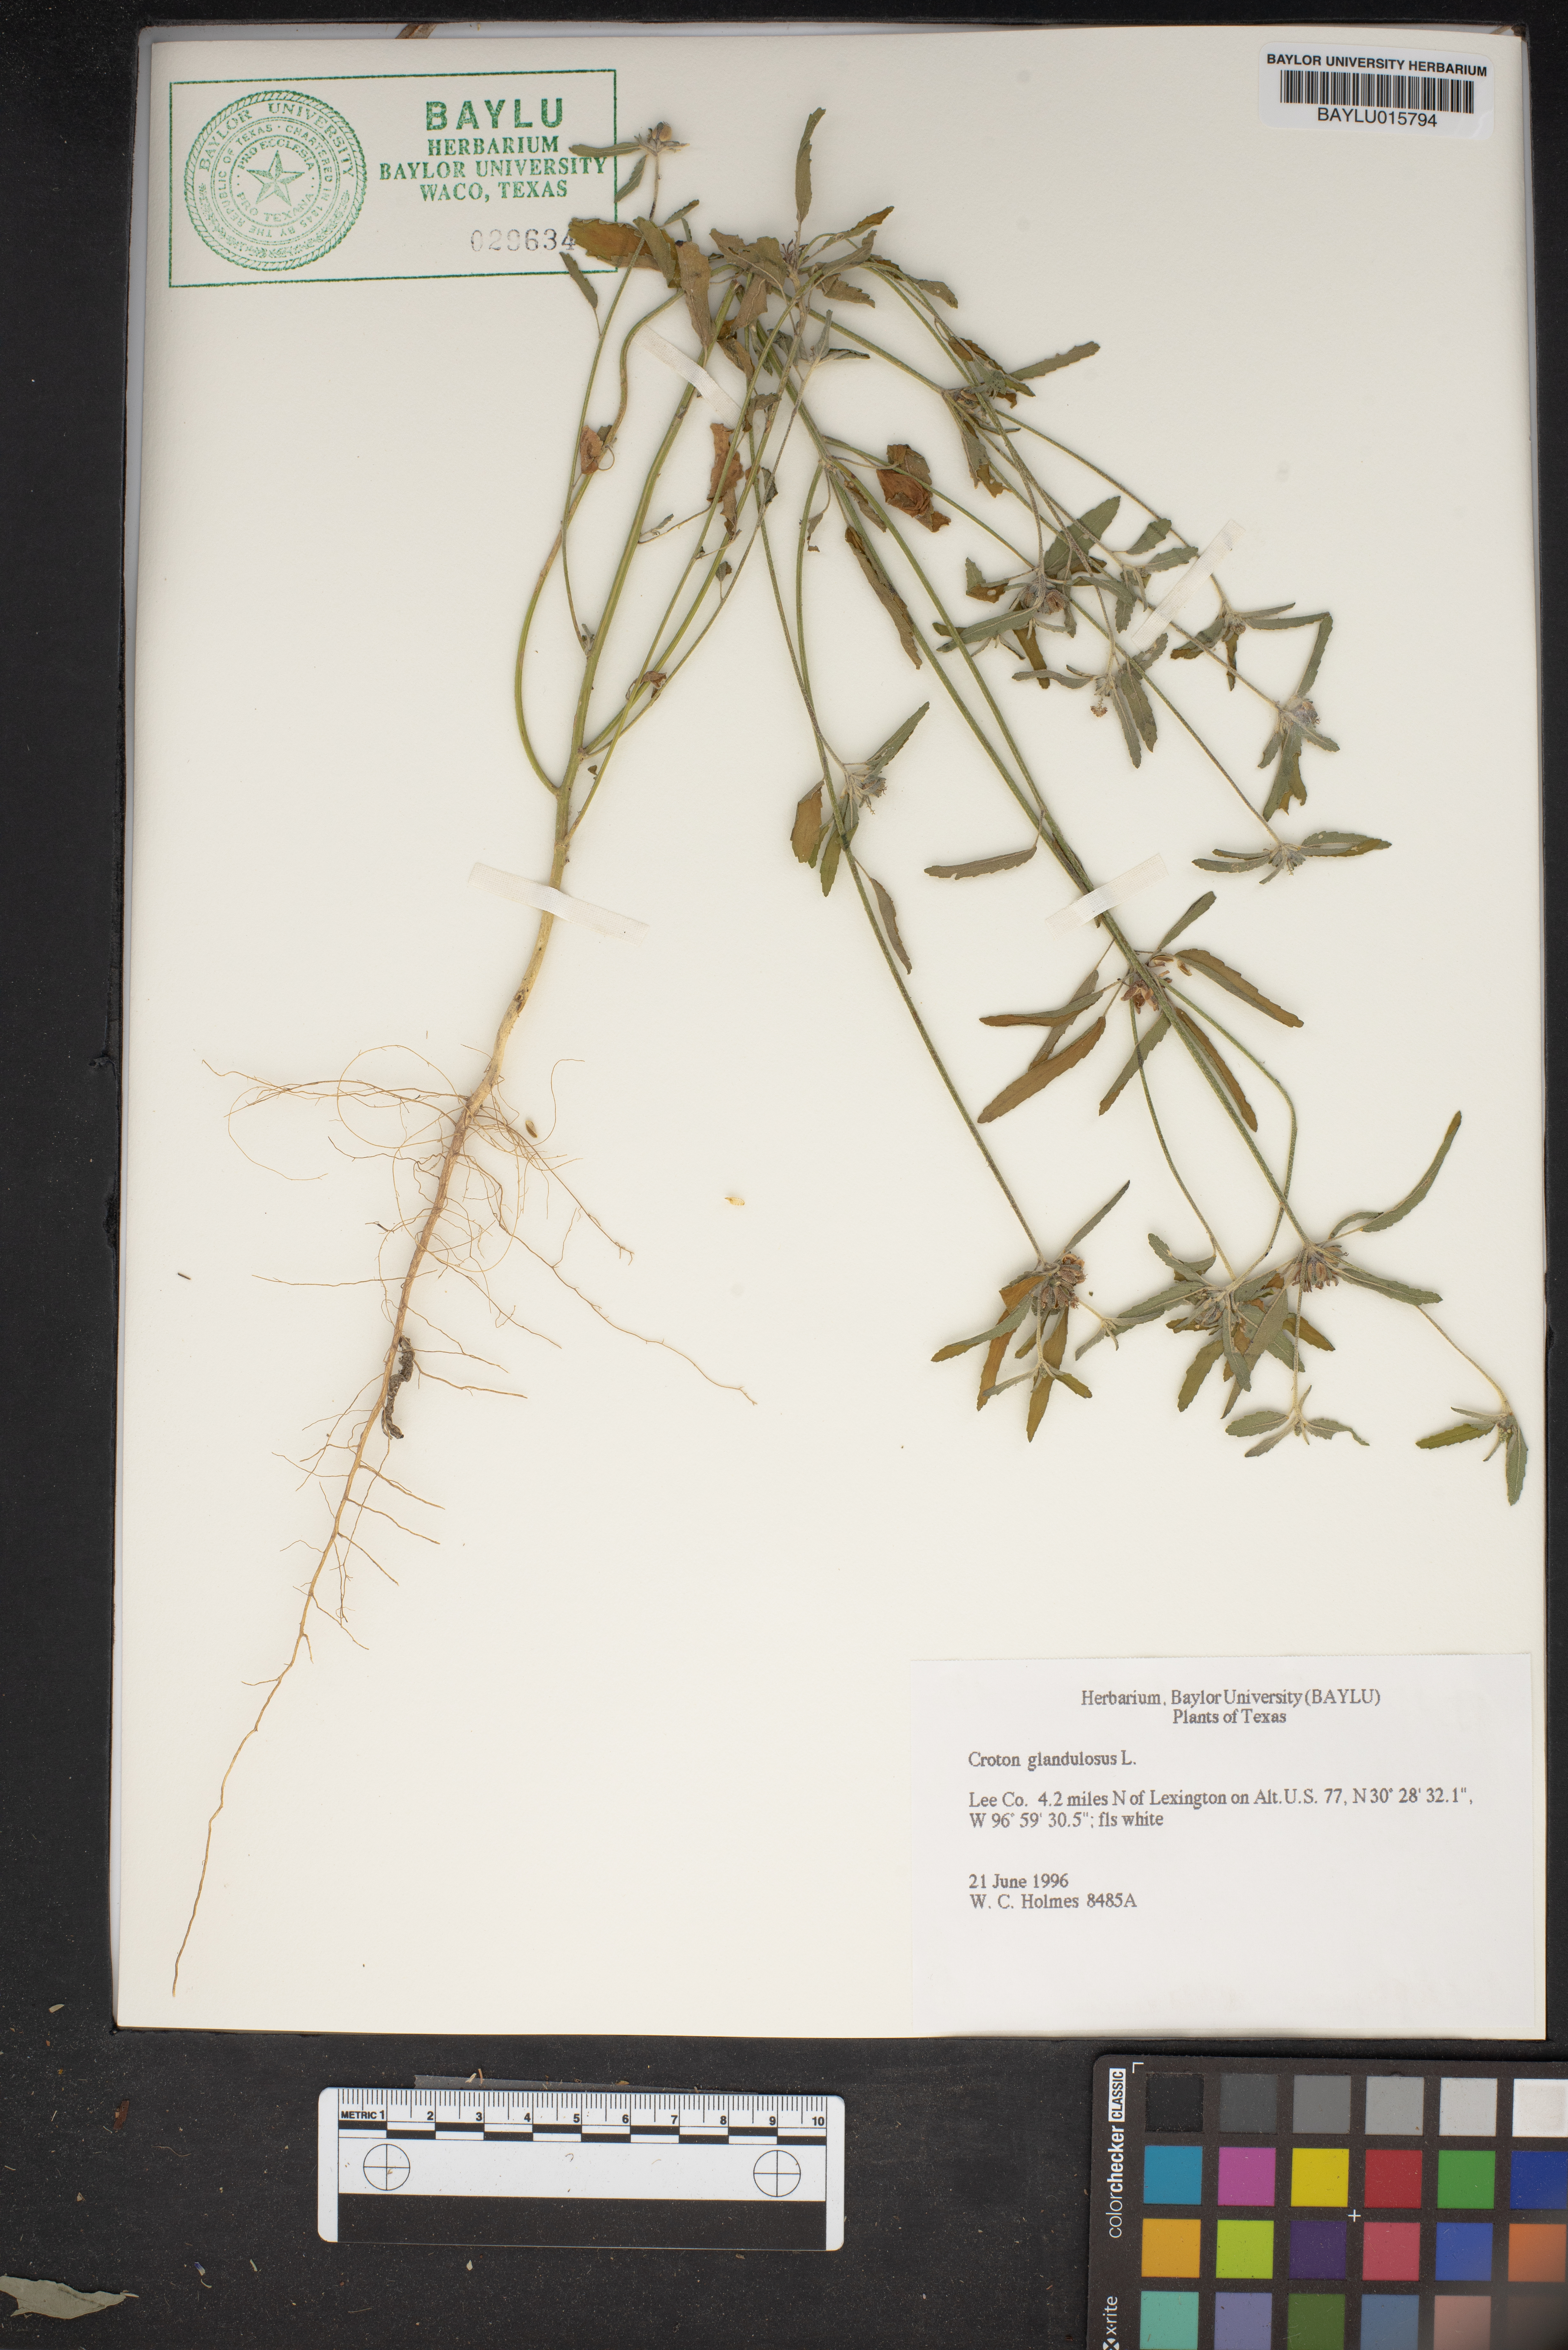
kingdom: Plantae
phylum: Tracheophyta
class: Magnoliopsida
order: Malpighiales
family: Euphorbiaceae
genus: Croton
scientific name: Croton glandulosus
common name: Tropic croton
